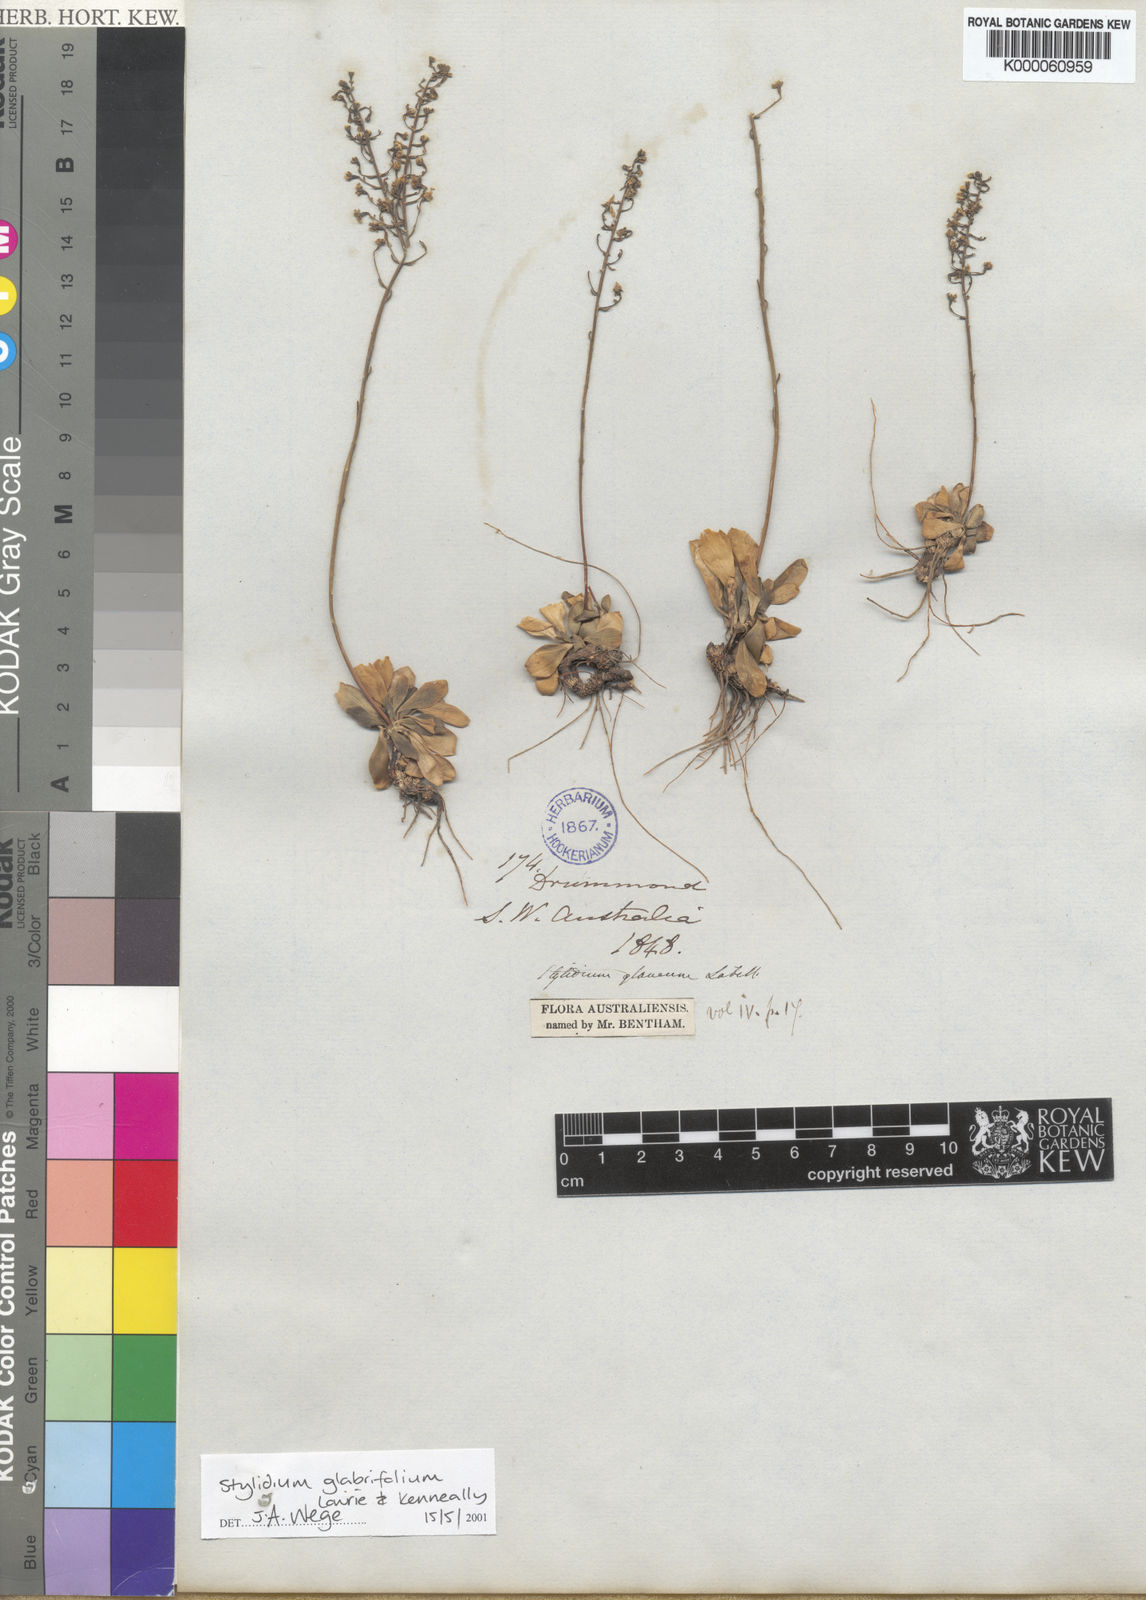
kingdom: Plantae
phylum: Tracheophyta
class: Magnoliopsida
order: Asterales
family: Stylidiaceae
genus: Stylidium
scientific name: Stylidium
